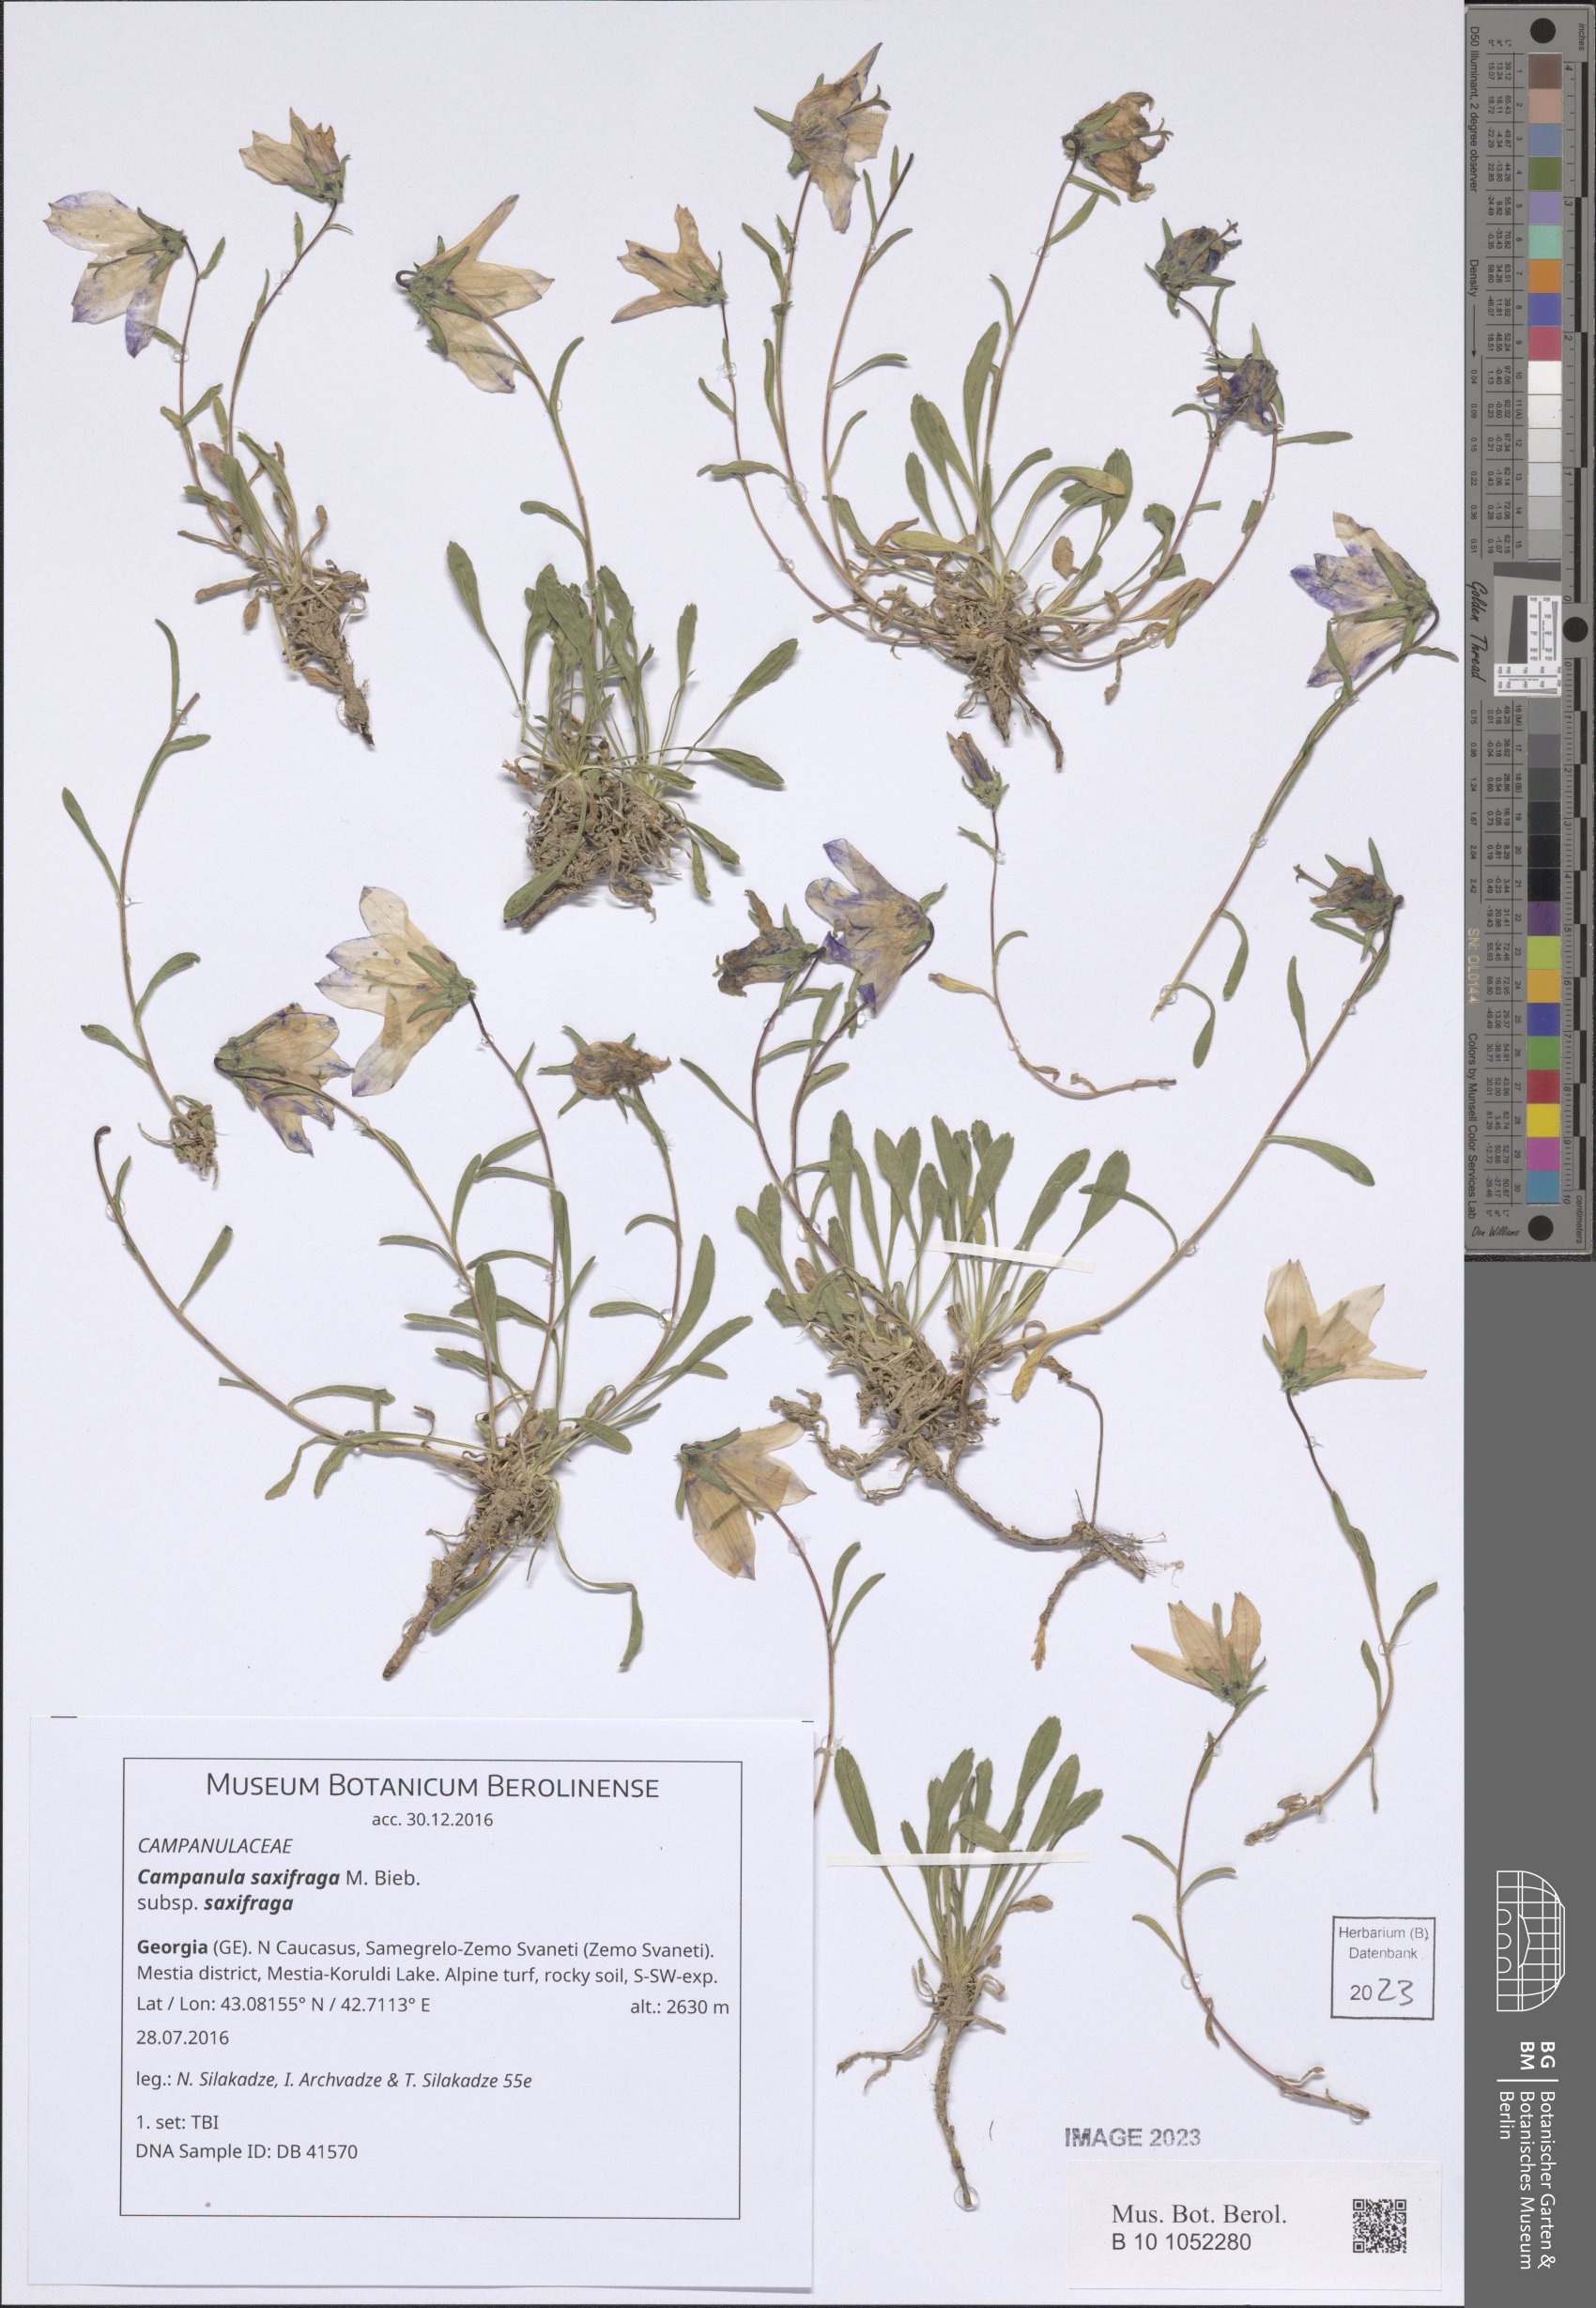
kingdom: Plantae
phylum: Tracheophyta
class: Magnoliopsida
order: Asterales
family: Campanulaceae
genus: Campanula
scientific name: Campanula saxifraga
